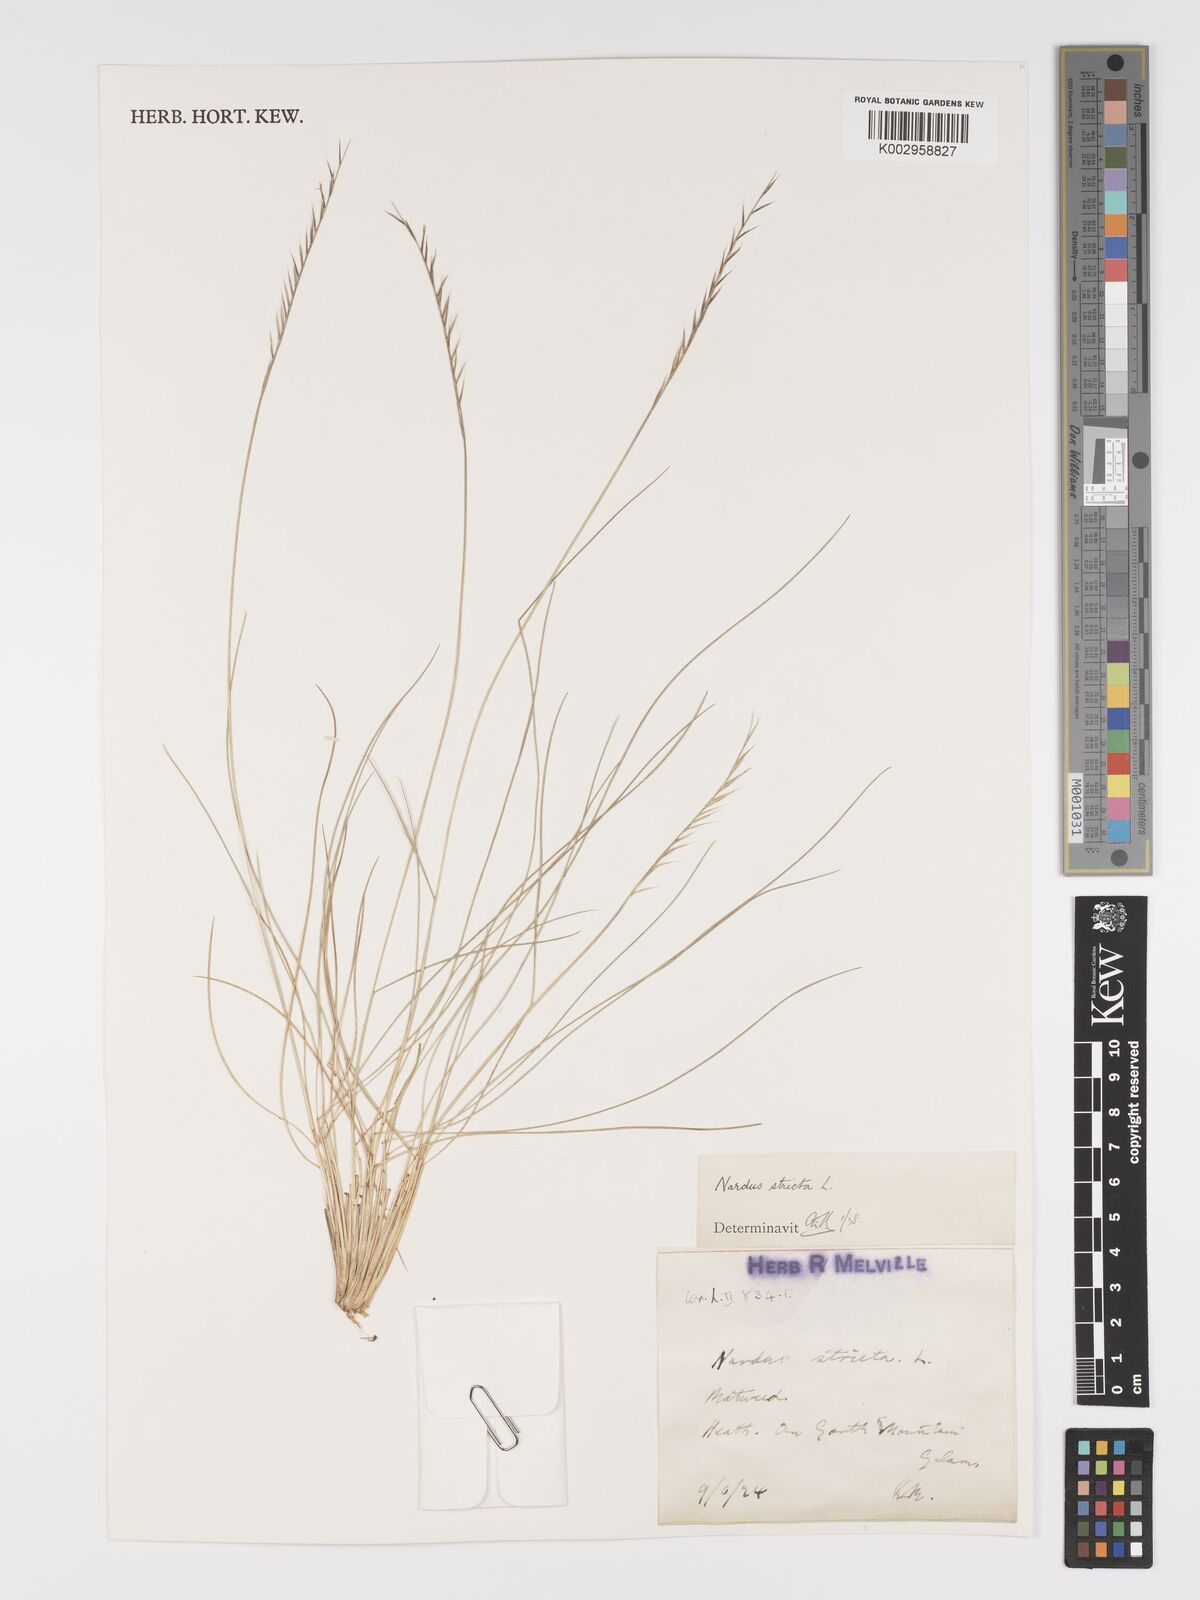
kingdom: Plantae
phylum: Tracheophyta
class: Liliopsida
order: Poales
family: Poaceae
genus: Nardus
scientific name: Nardus stricta
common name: Mat-grass
